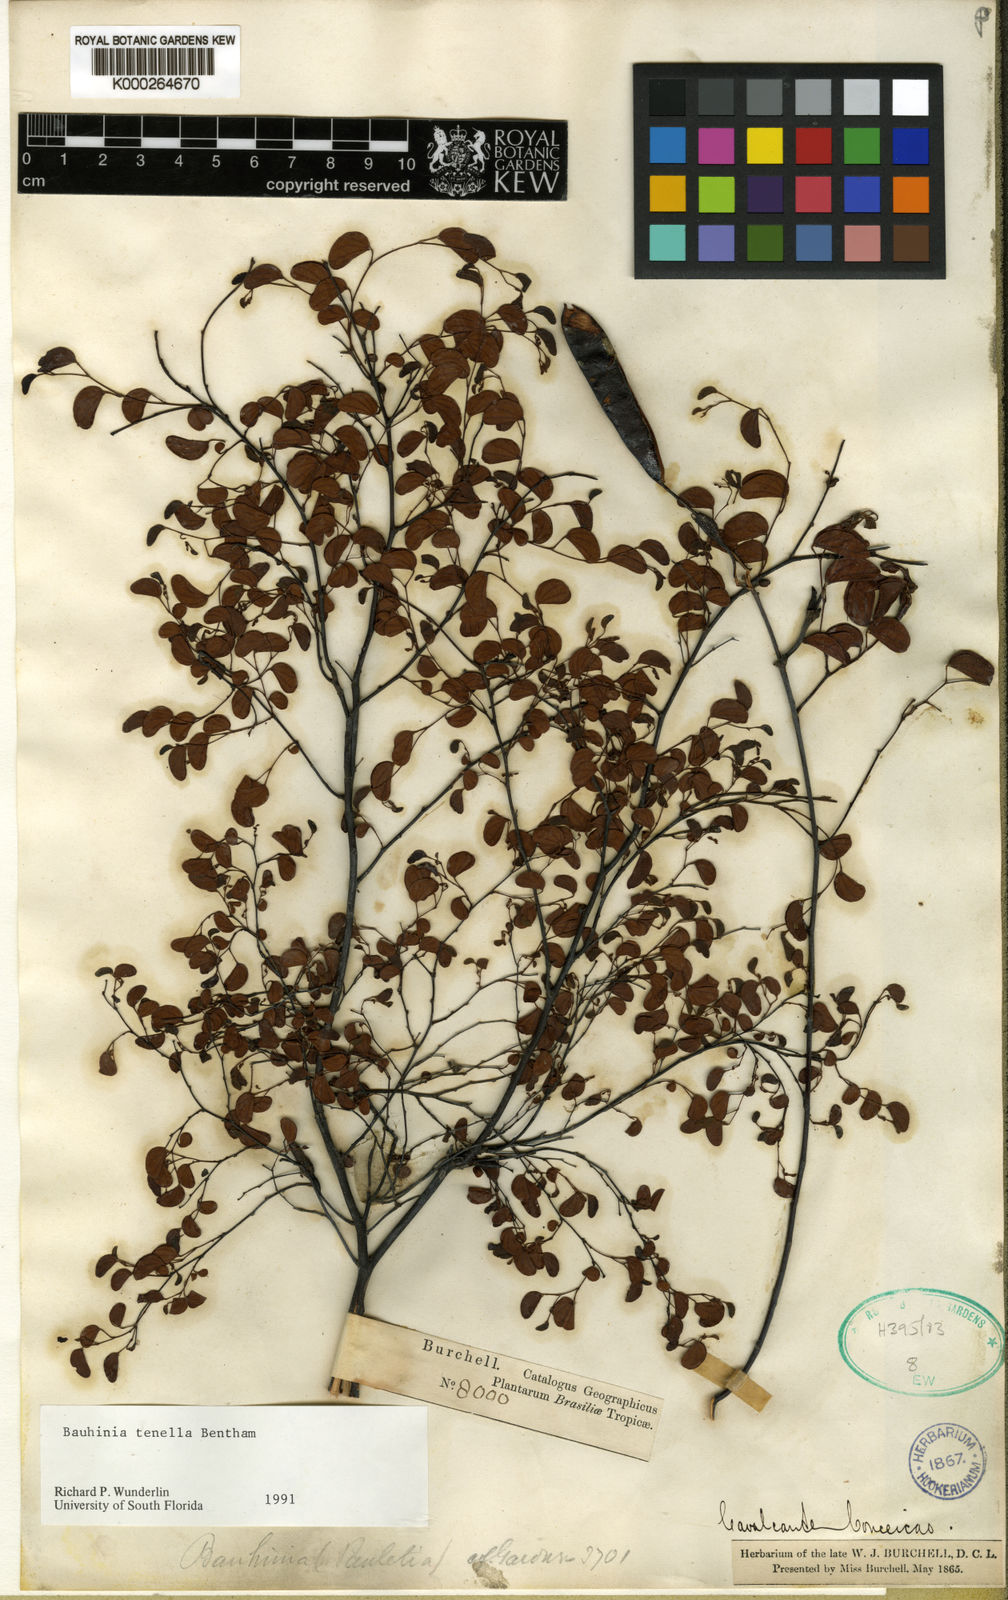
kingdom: Plantae
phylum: Tracheophyta
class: Magnoliopsida
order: Fabales
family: Fabaceae
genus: Bauhinia
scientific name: Bauhinia tenella
